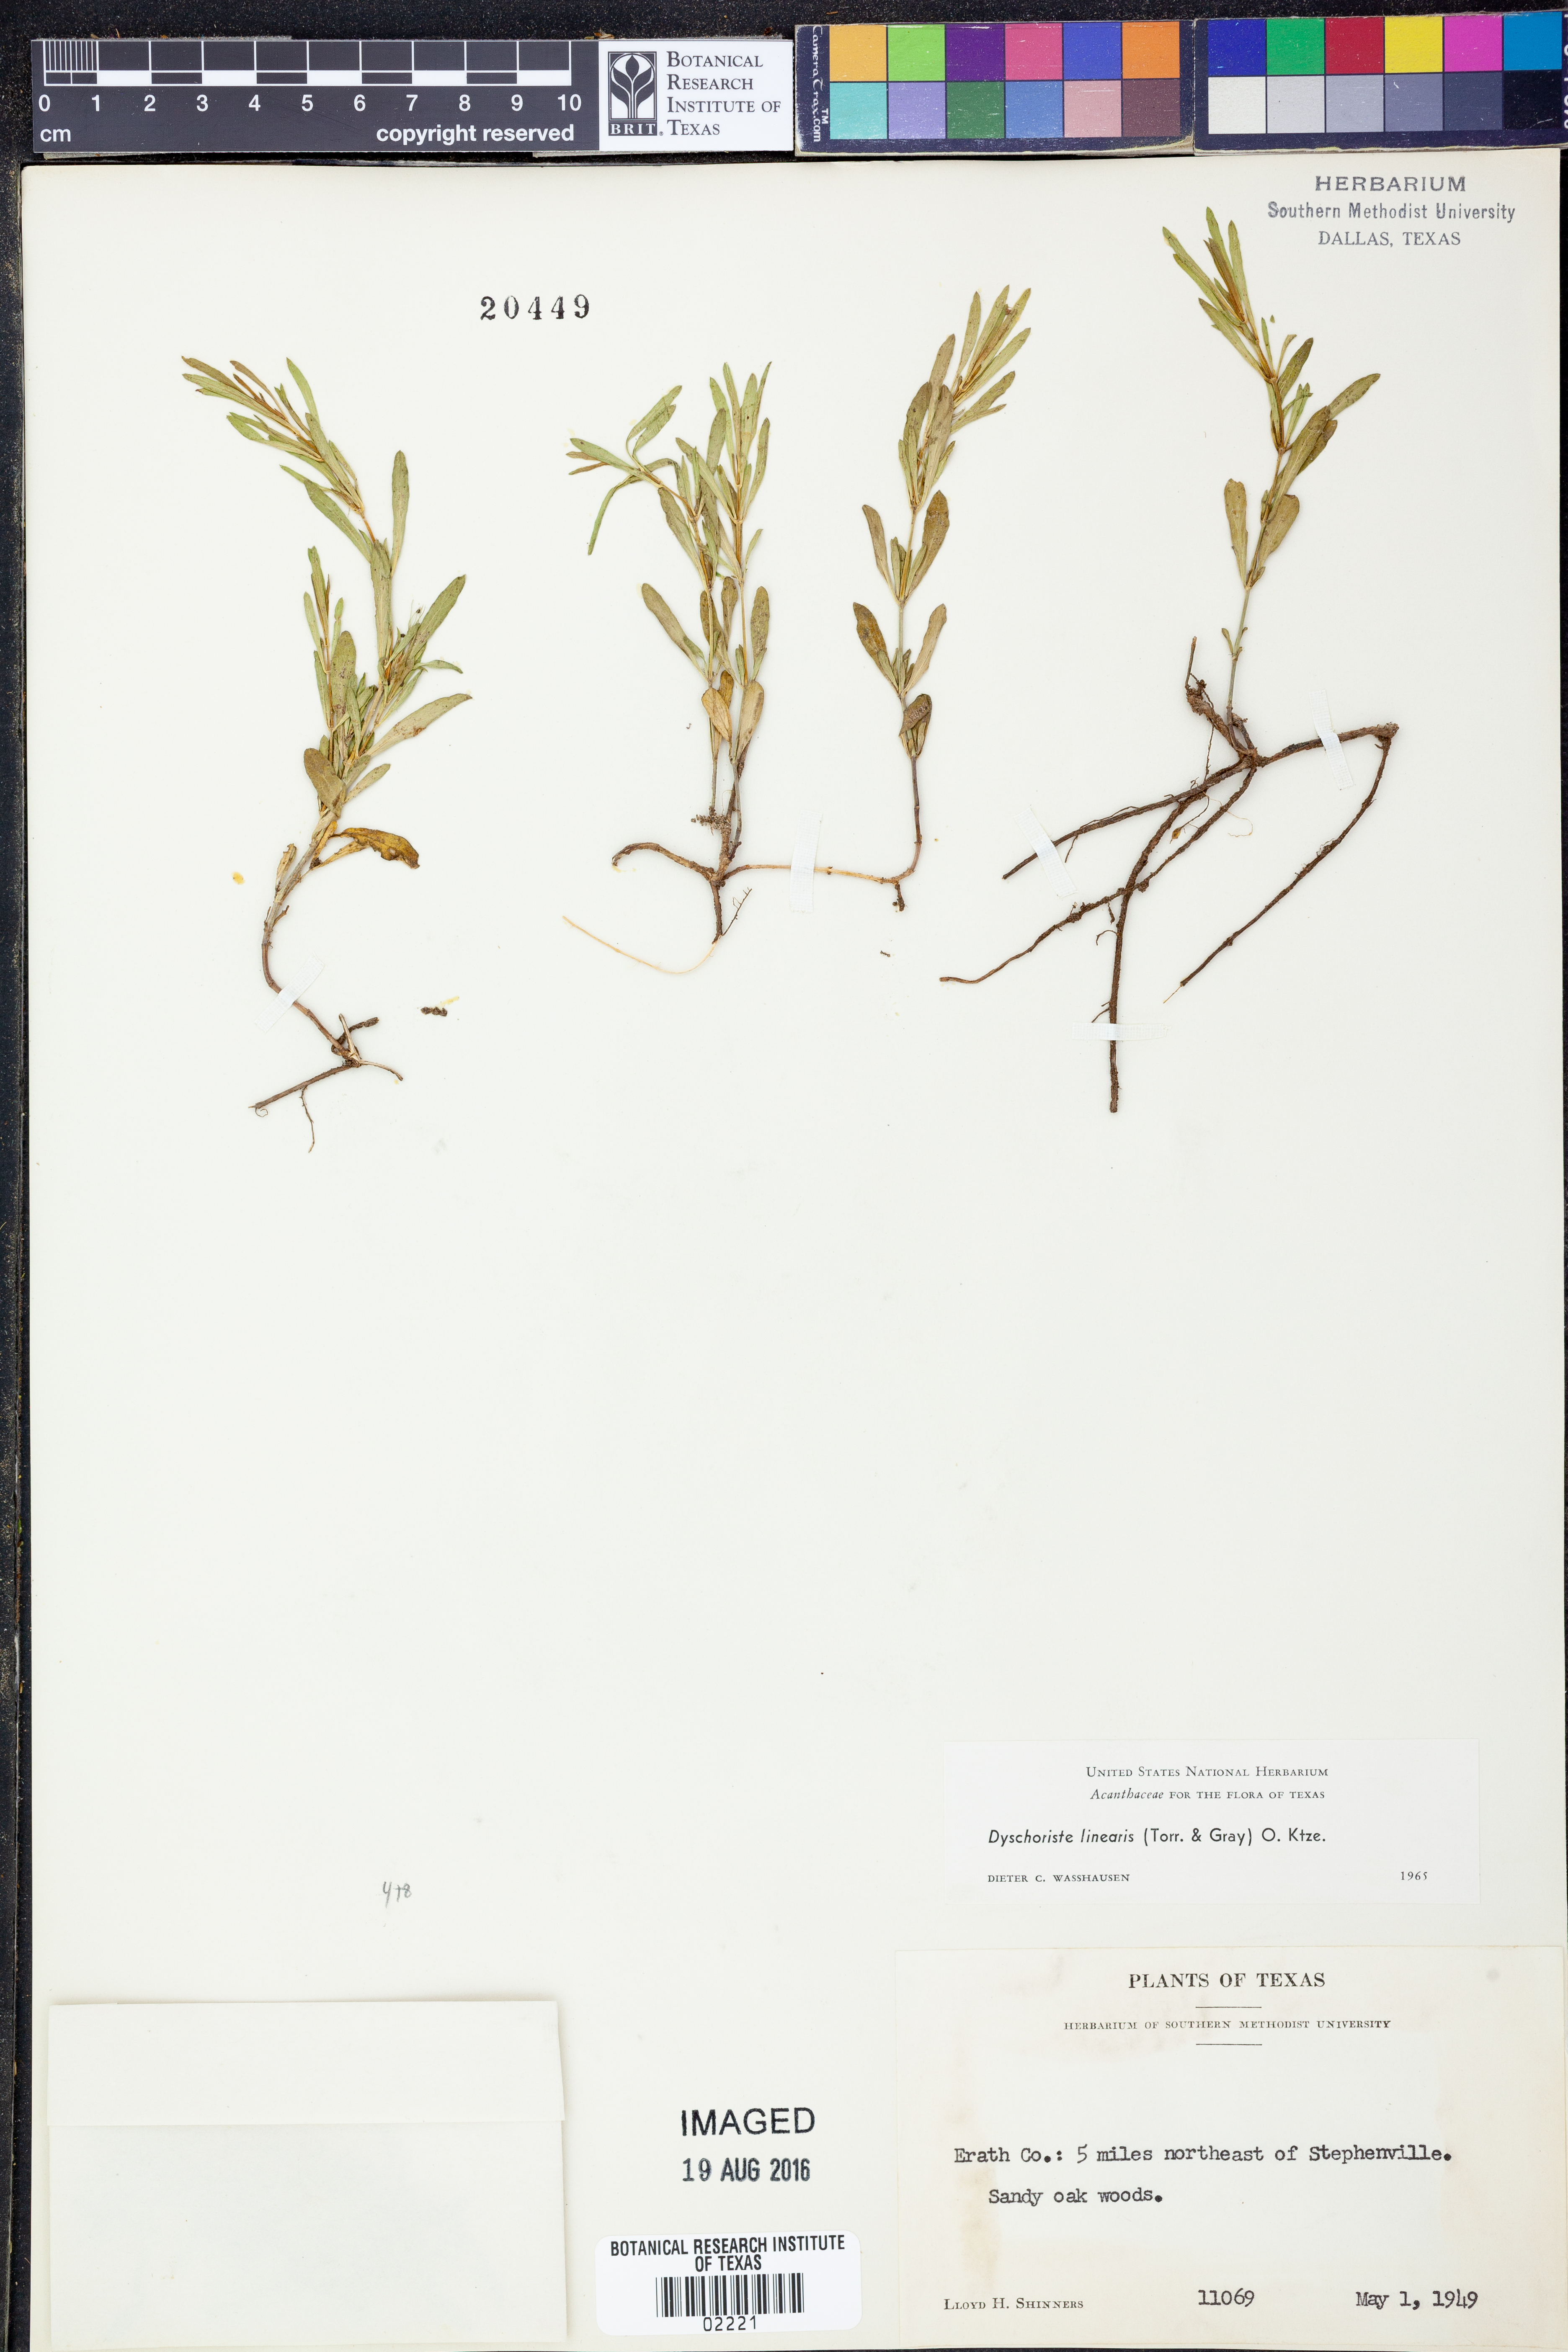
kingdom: Plantae
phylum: Tracheophyta
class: Magnoliopsida
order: Lamiales
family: Acanthaceae
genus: Dyschoriste
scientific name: Dyschoriste linearis
